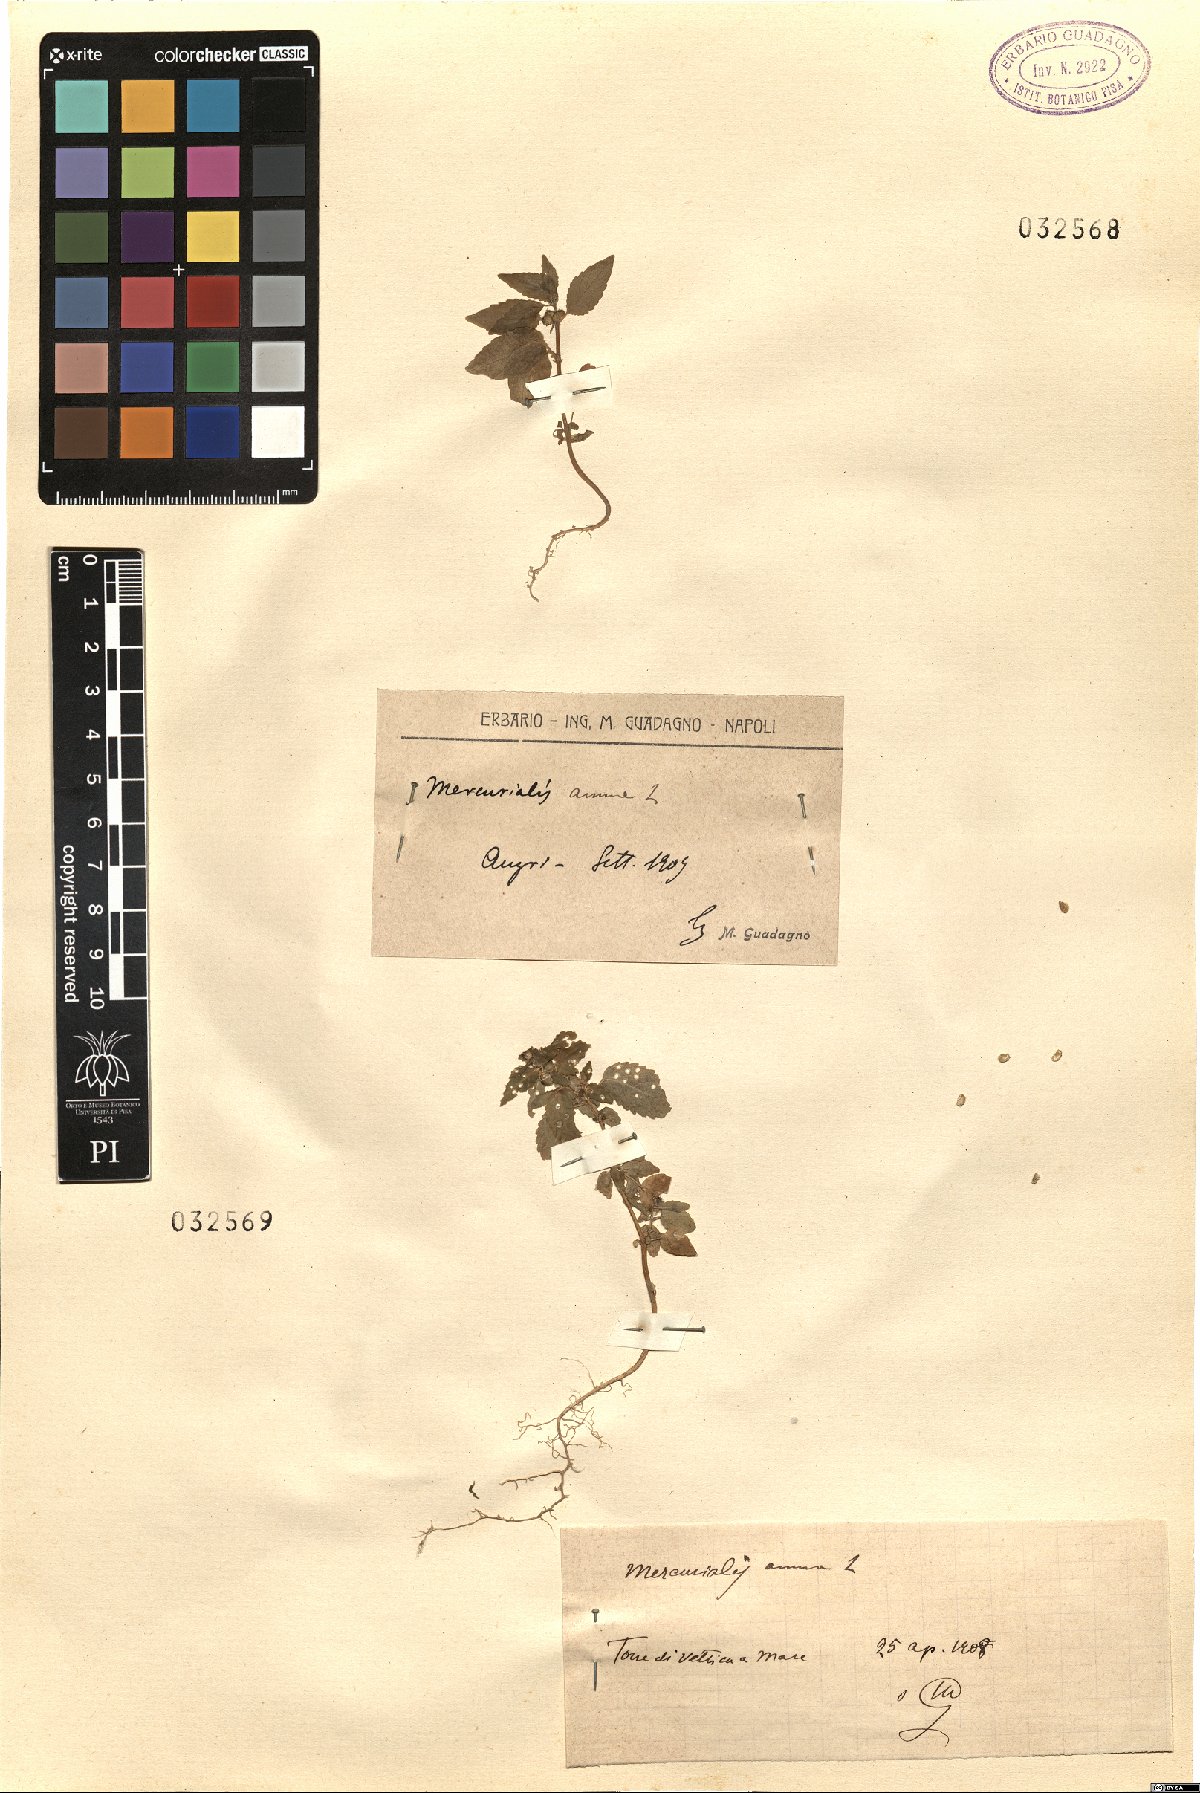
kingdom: Plantae
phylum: Tracheophyta
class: Magnoliopsida
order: Malpighiales
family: Euphorbiaceae
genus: Mercurialis
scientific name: Mercurialis annua
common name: Annual mercury
